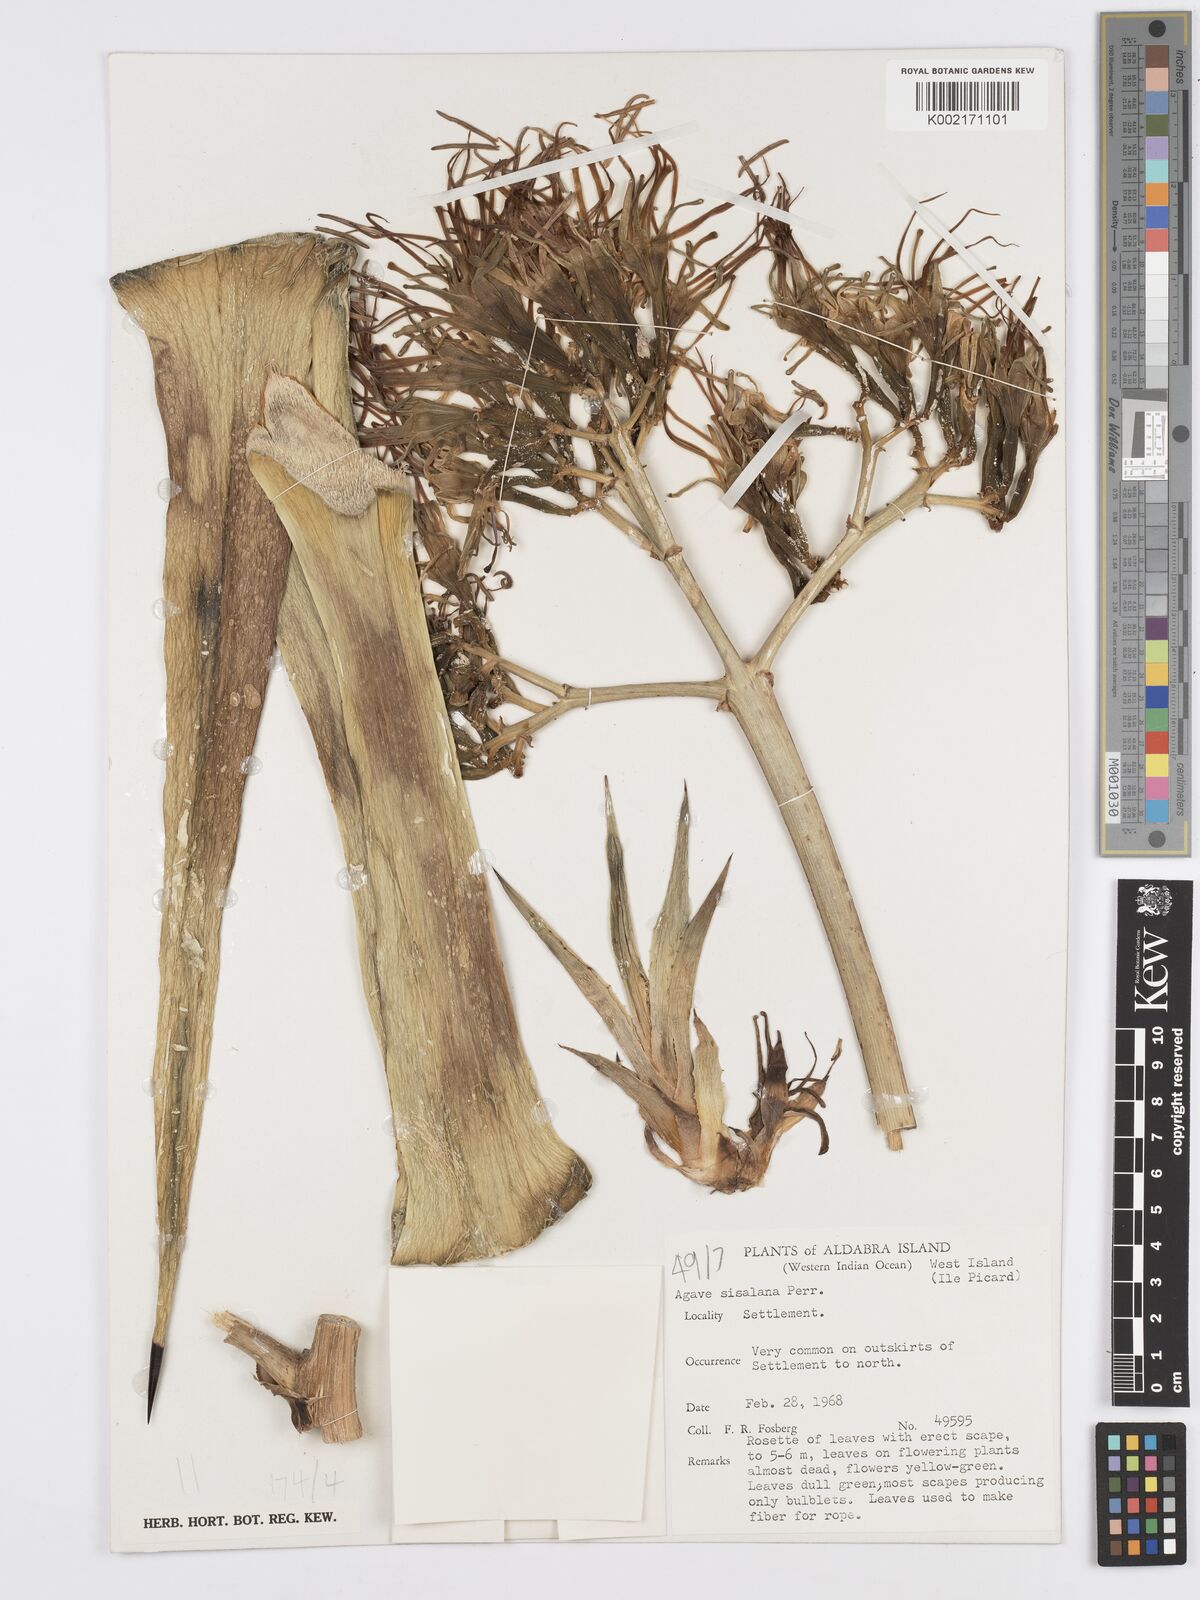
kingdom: Plantae
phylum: Tracheophyta
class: Liliopsida
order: Asparagales
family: Asparagaceae
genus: Agave
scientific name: Agave sisalana
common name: Sisal hemp
